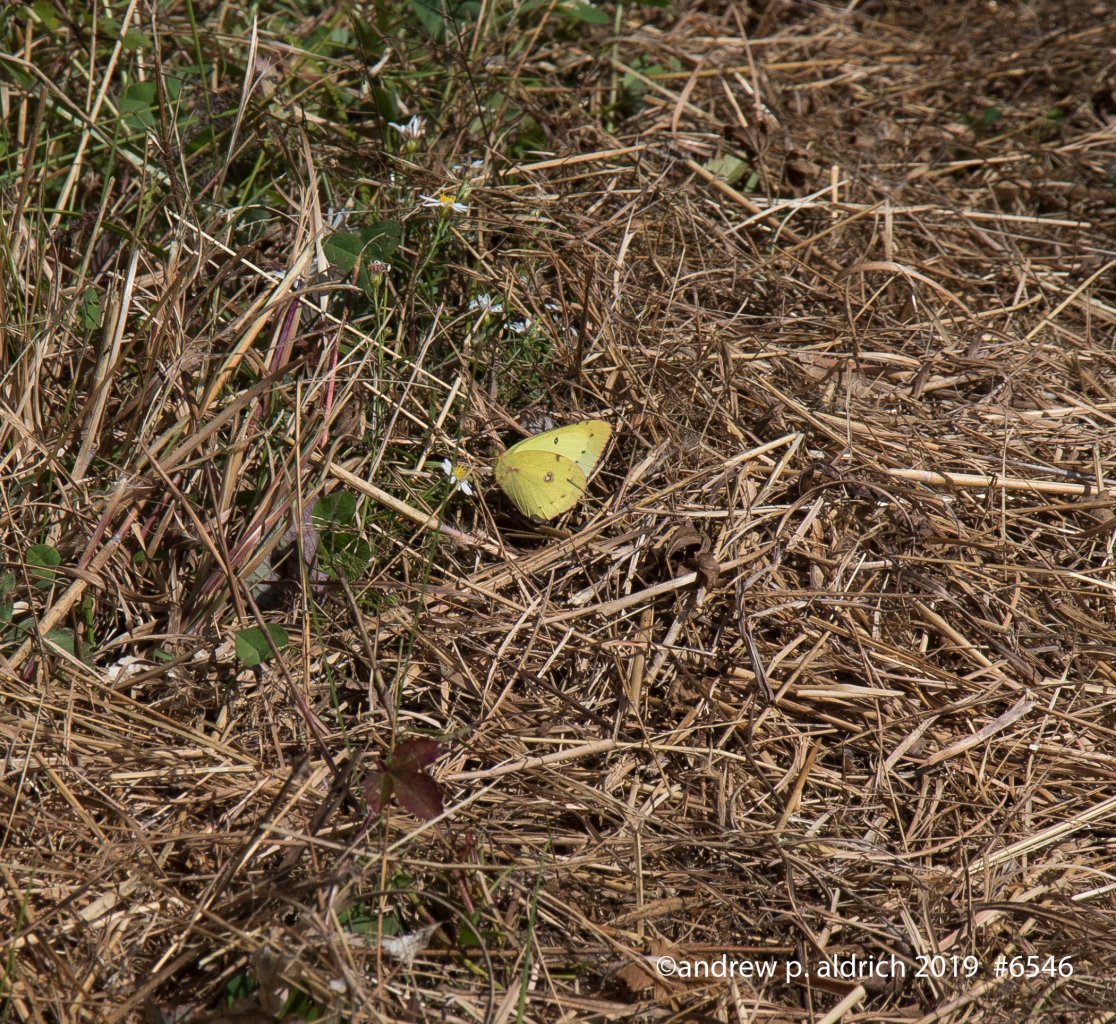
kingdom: Animalia
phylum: Arthropoda
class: Insecta
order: Lepidoptera
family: Pieridae
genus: Colias
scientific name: Colias eurytheme
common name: Orange Sulphur
